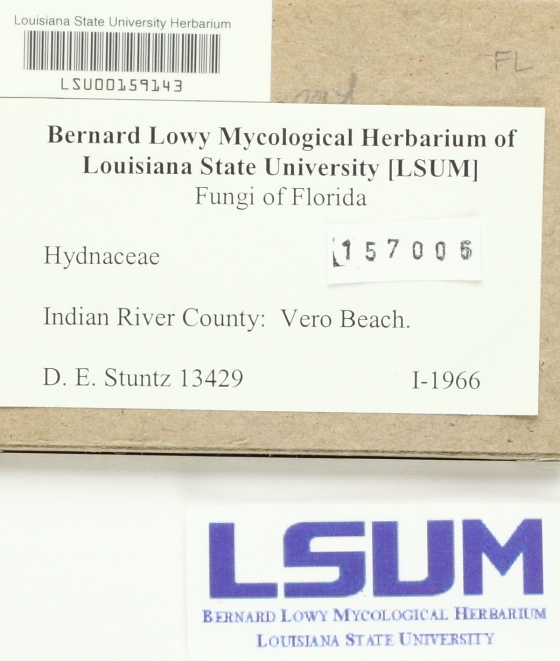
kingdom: Fungi
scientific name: Fungi
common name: Fungi
